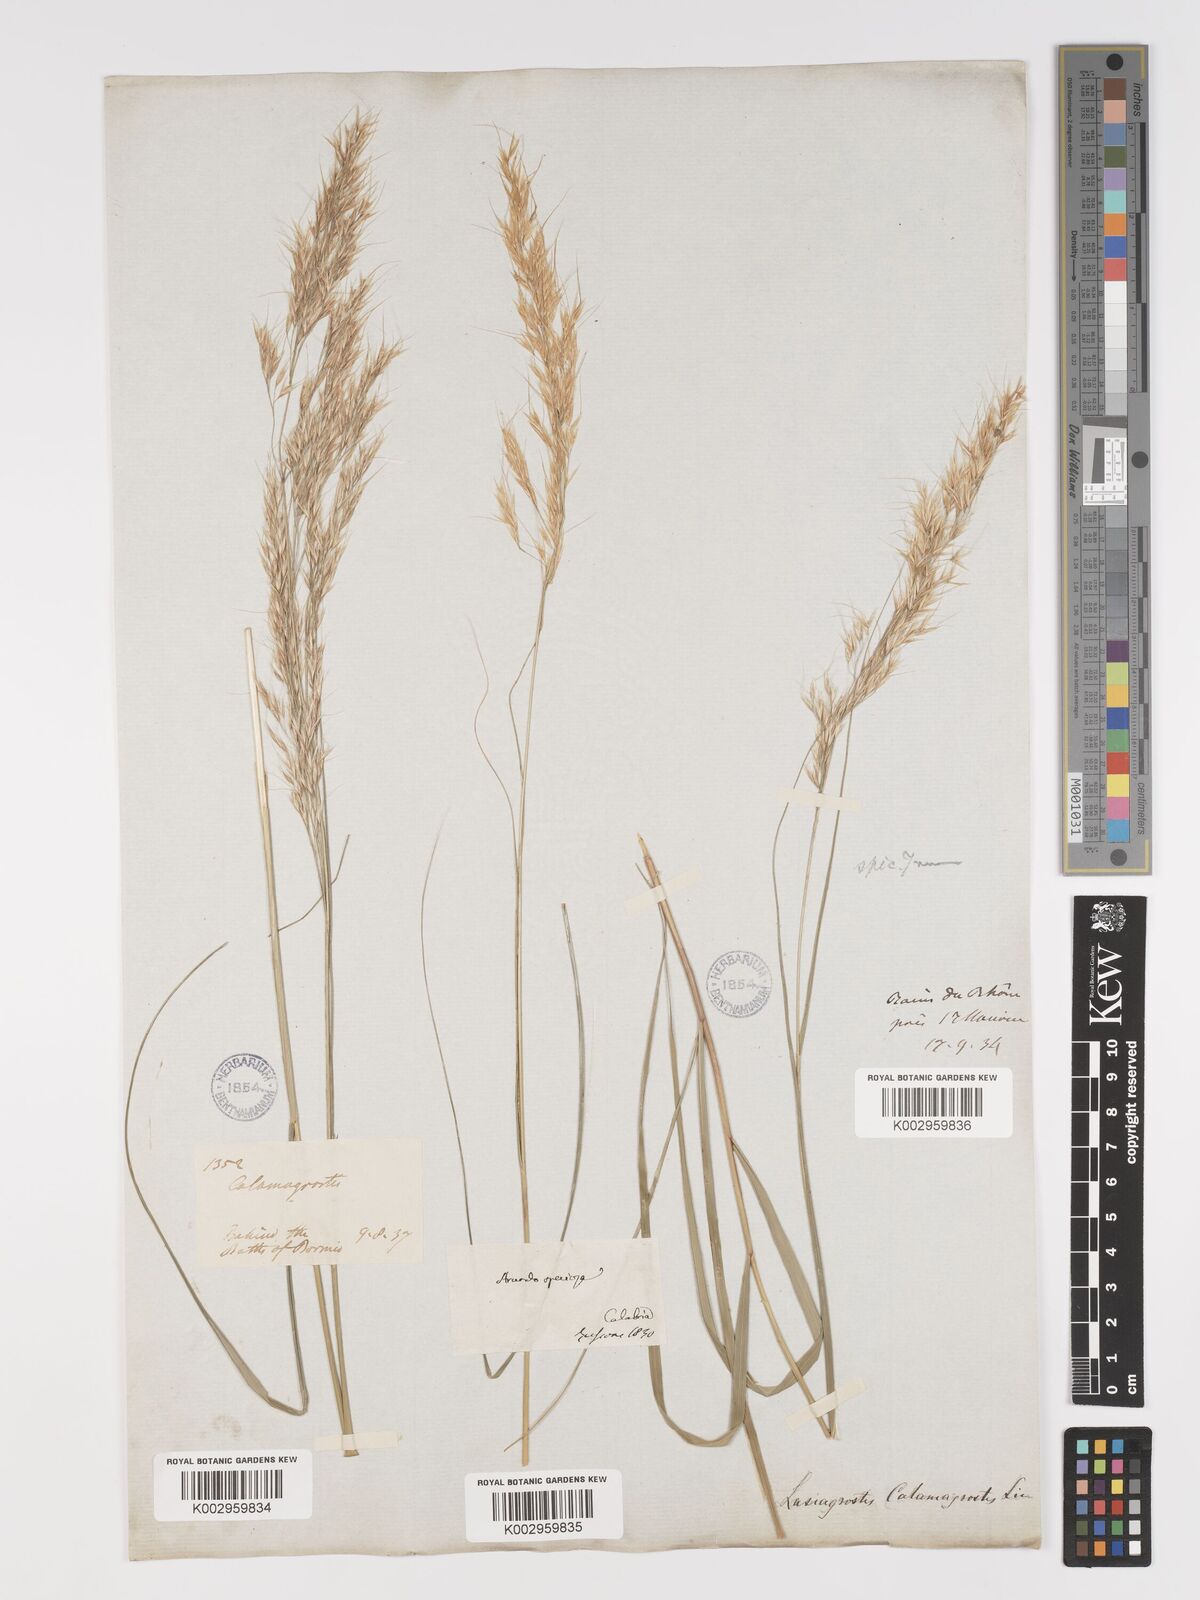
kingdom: Plantae
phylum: Tracheophyta
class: Liliopsida
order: Poales
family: Poaceae
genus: Achnatherum
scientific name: Achnatherum calamagrostis
